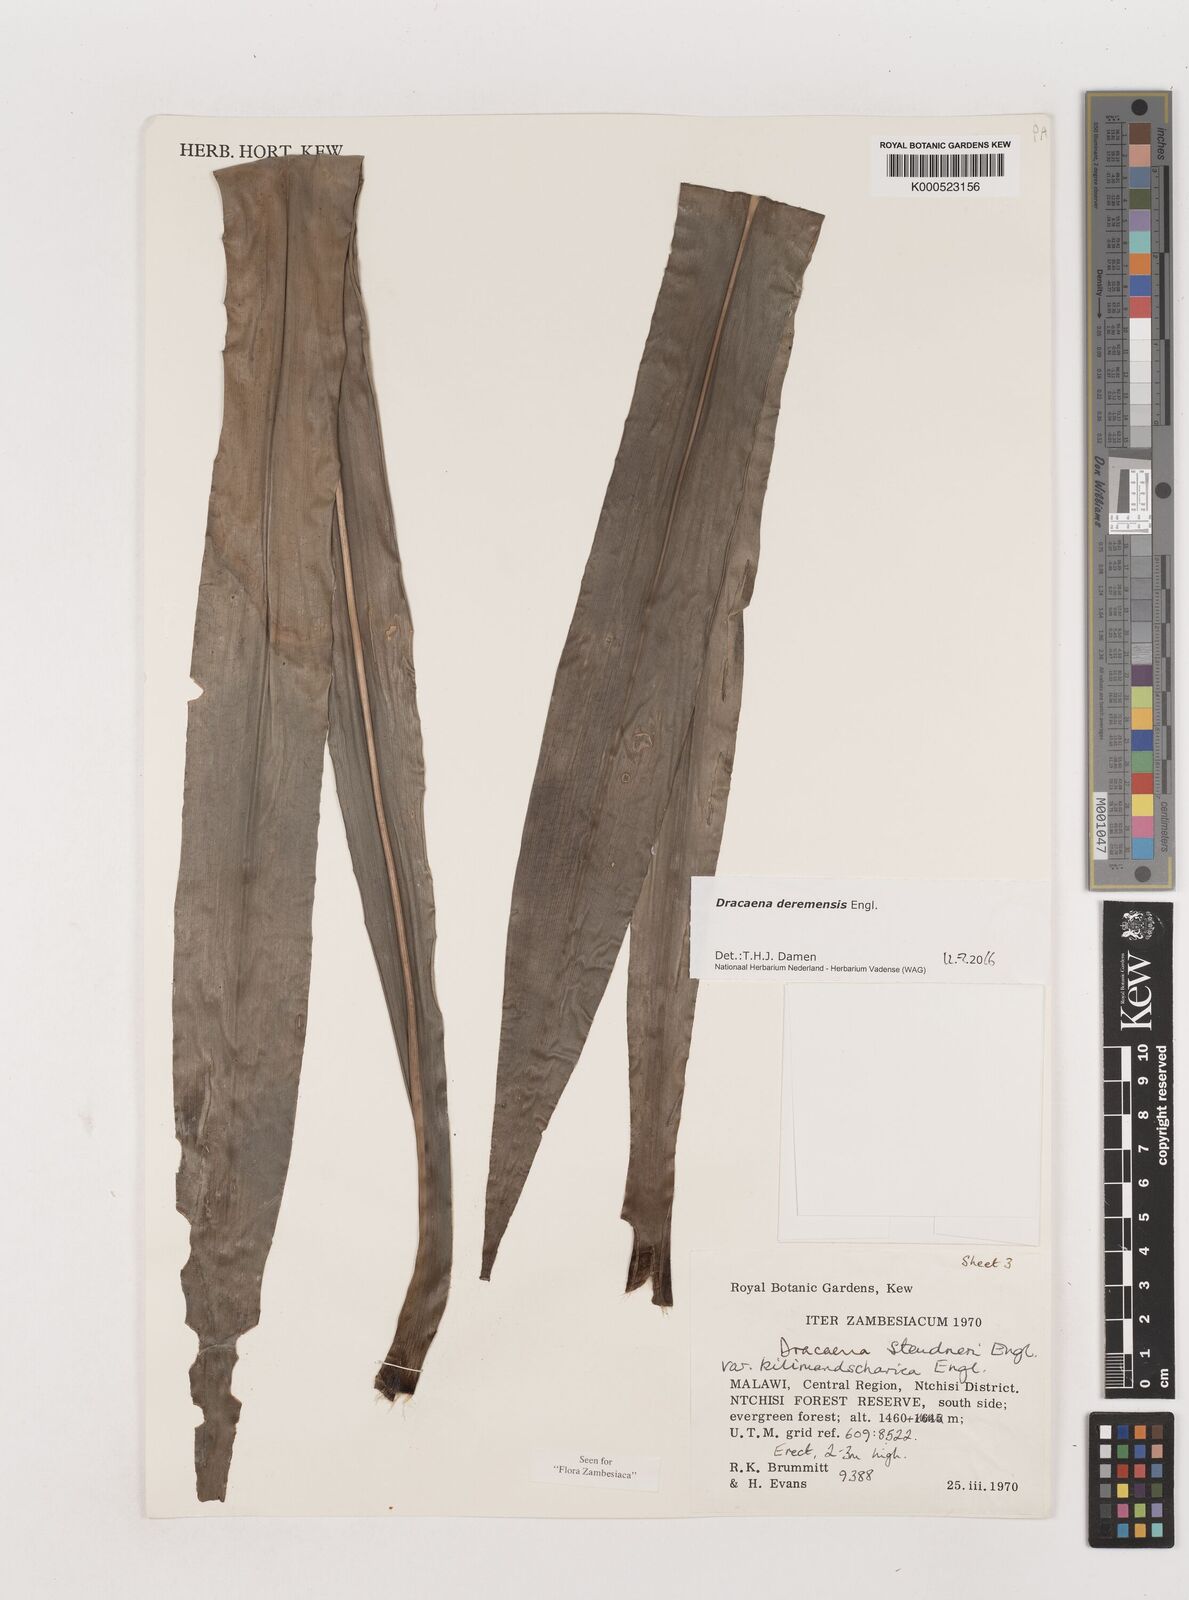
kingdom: Plantae
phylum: Tracheophyta
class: Liliopsida
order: Asparagales
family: Asparagaceae
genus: Dracaena
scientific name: Dracaena fragrans
